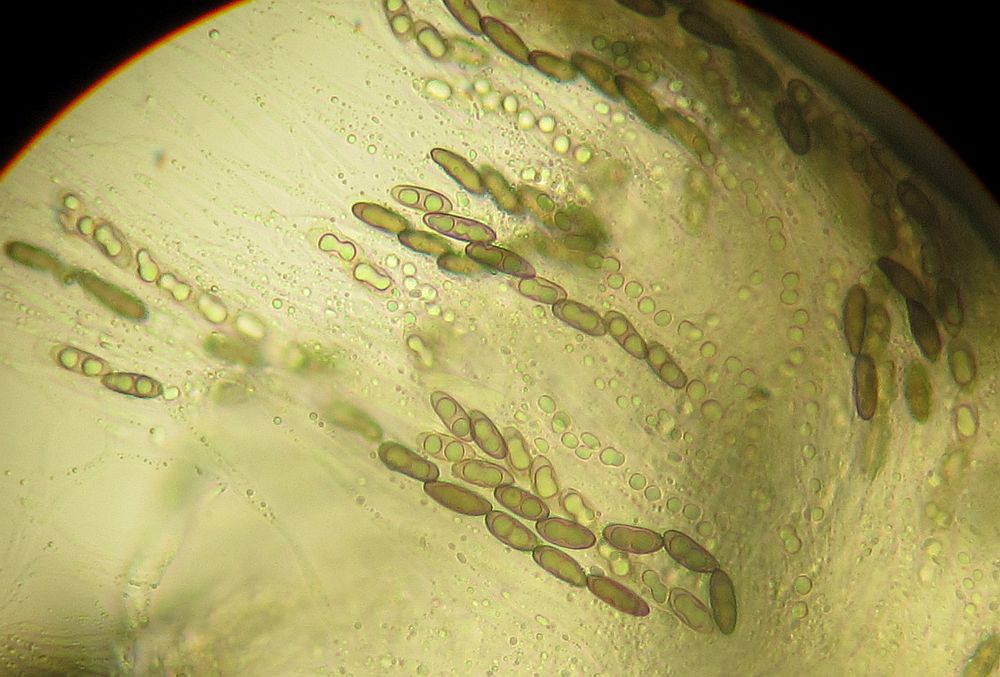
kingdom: Fungi
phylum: Ascomycota
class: Sordariomycetes
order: Xylariales
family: Xylariaceae
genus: Nemania
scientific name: Nemania serpens
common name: almindelig kuldyne
